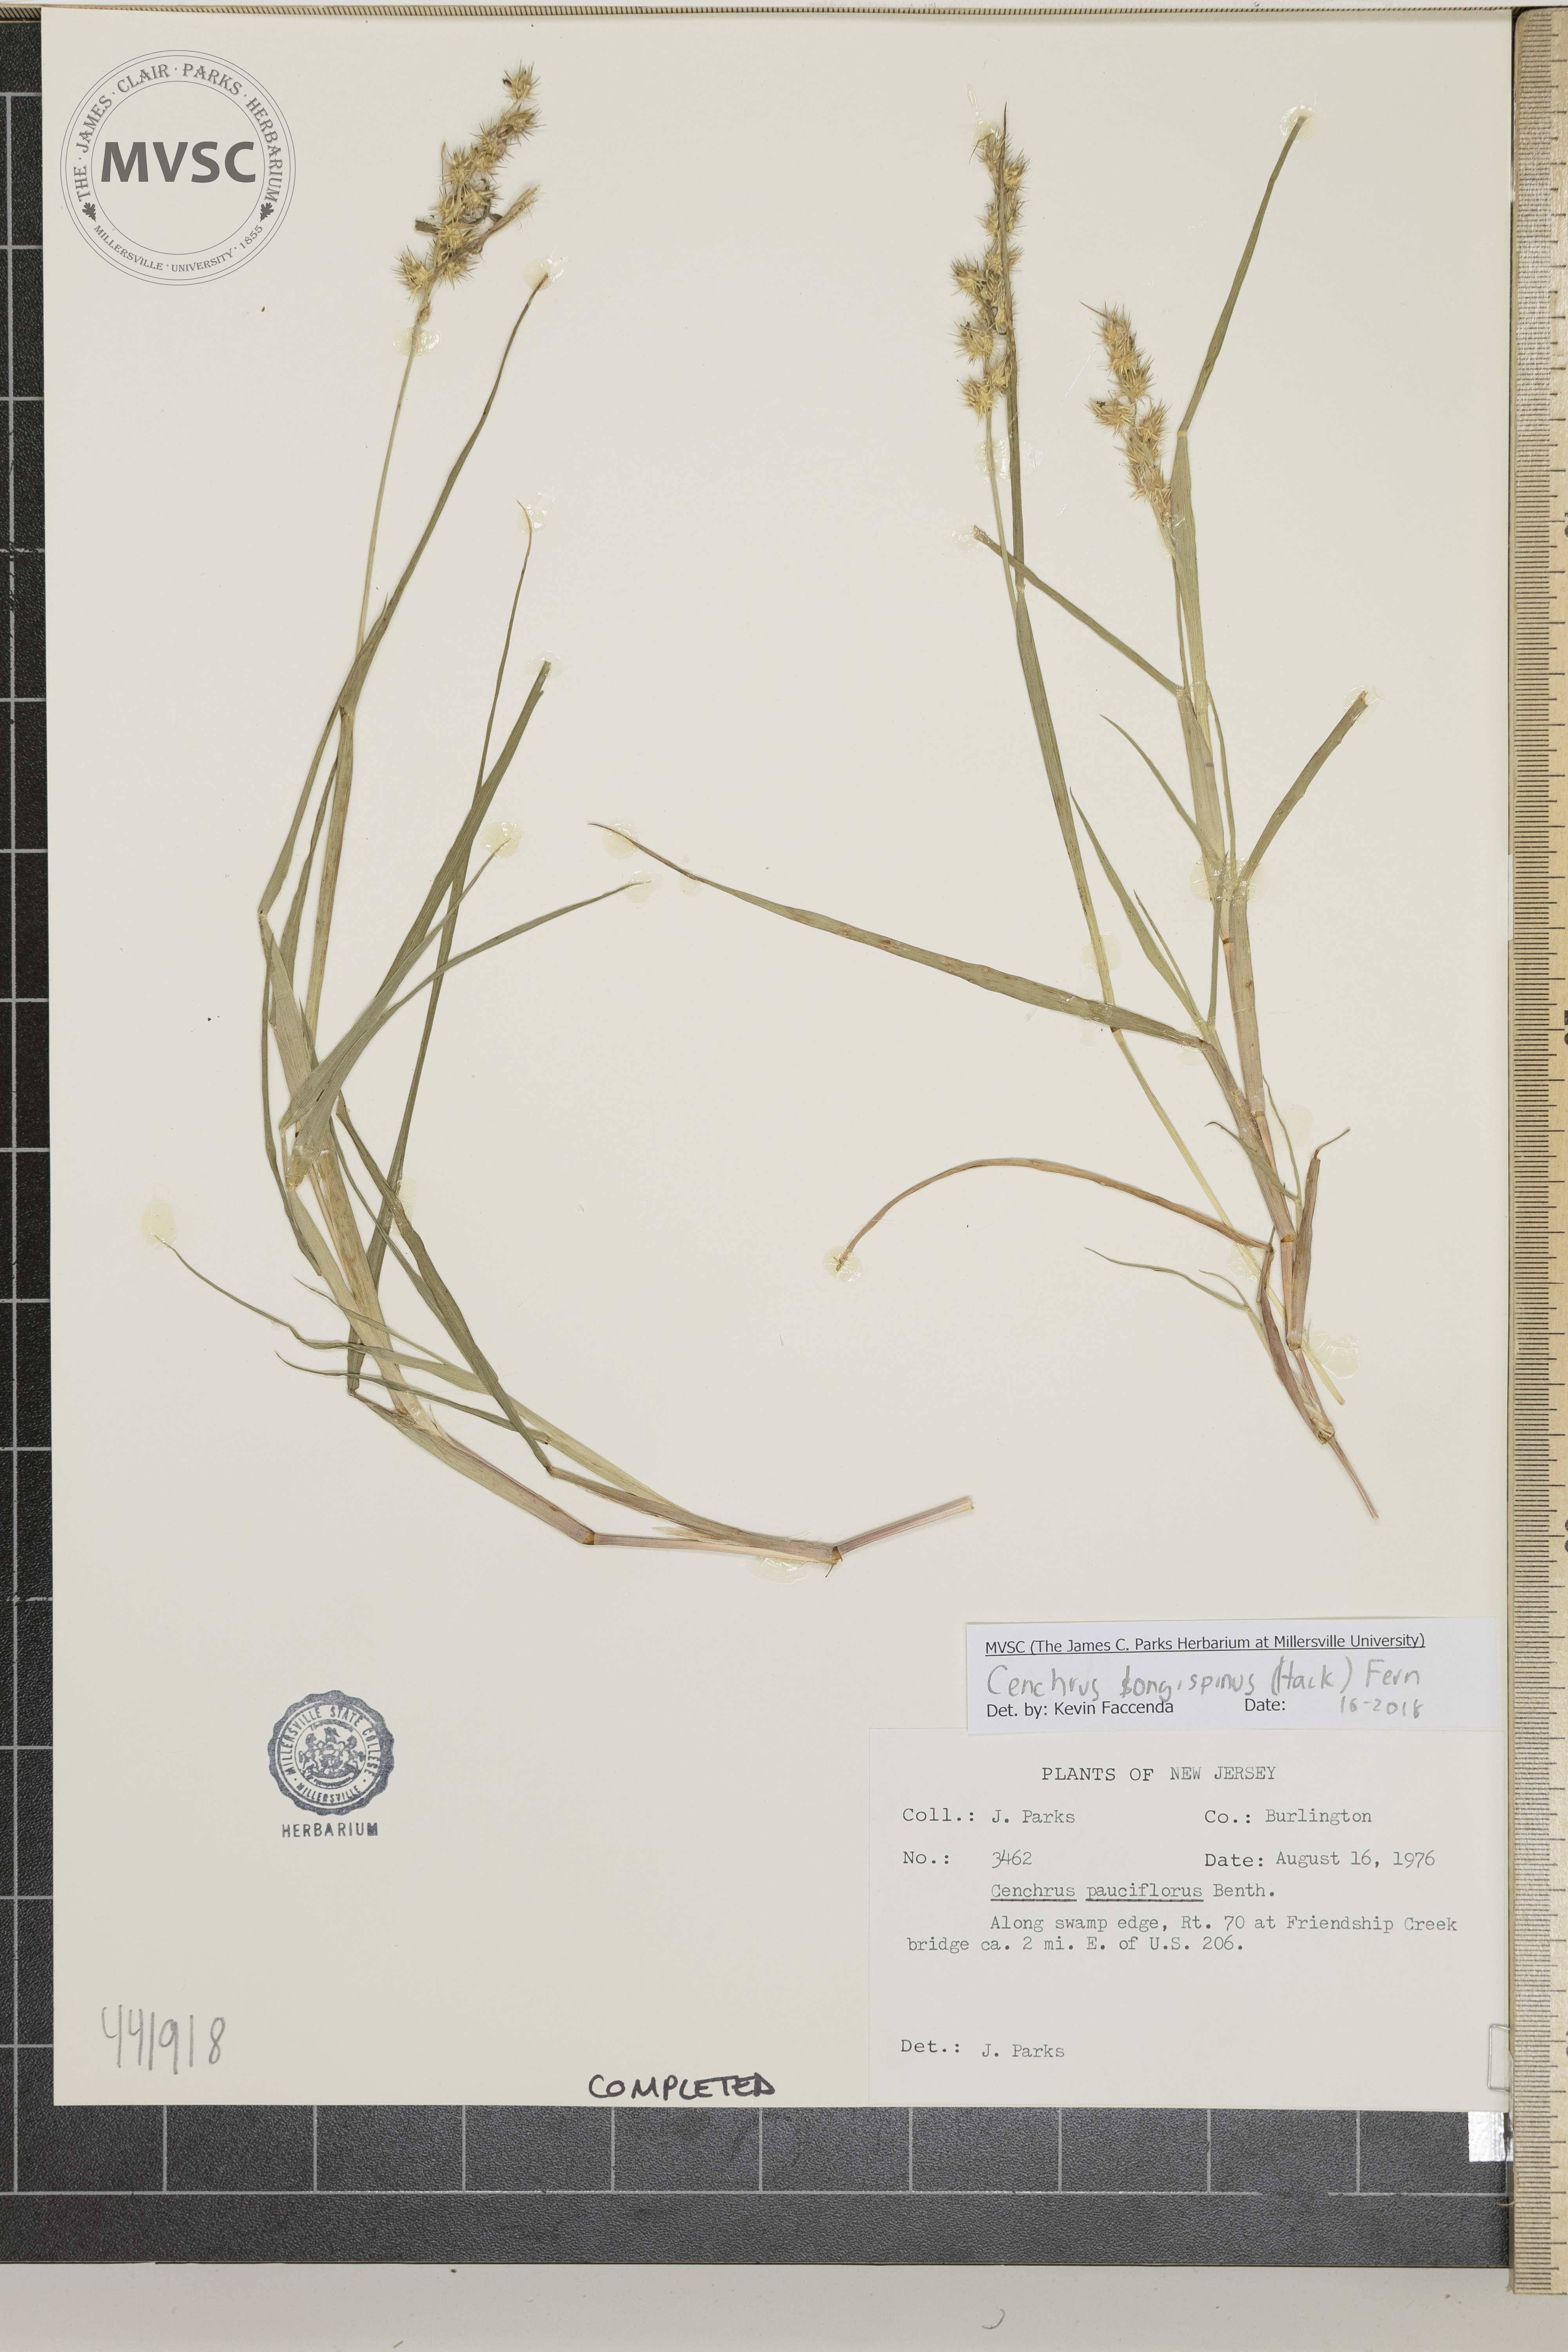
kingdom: Plantae
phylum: Tracheophyta
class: Liliopsida
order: Poales
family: Poaceae
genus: Cenchrus
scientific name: Cenchrus longispinus
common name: Mat sandbur
